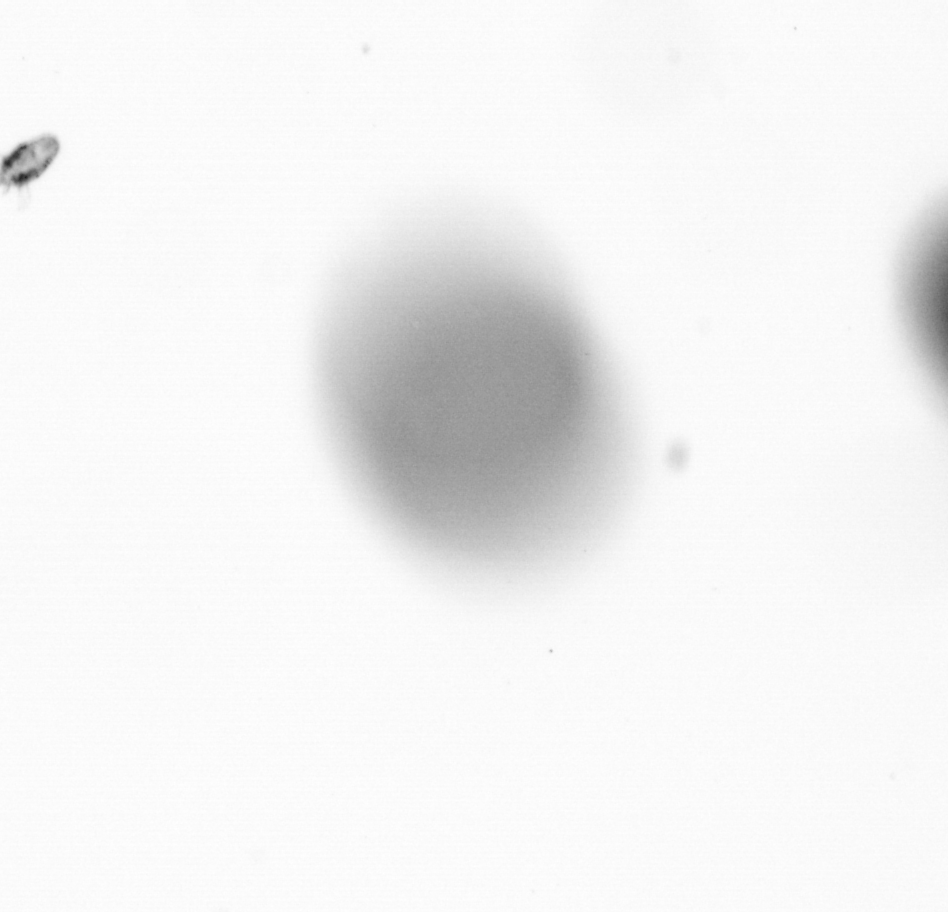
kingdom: Animalia
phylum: Arthropoda
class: Copepoda
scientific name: Copepoda
